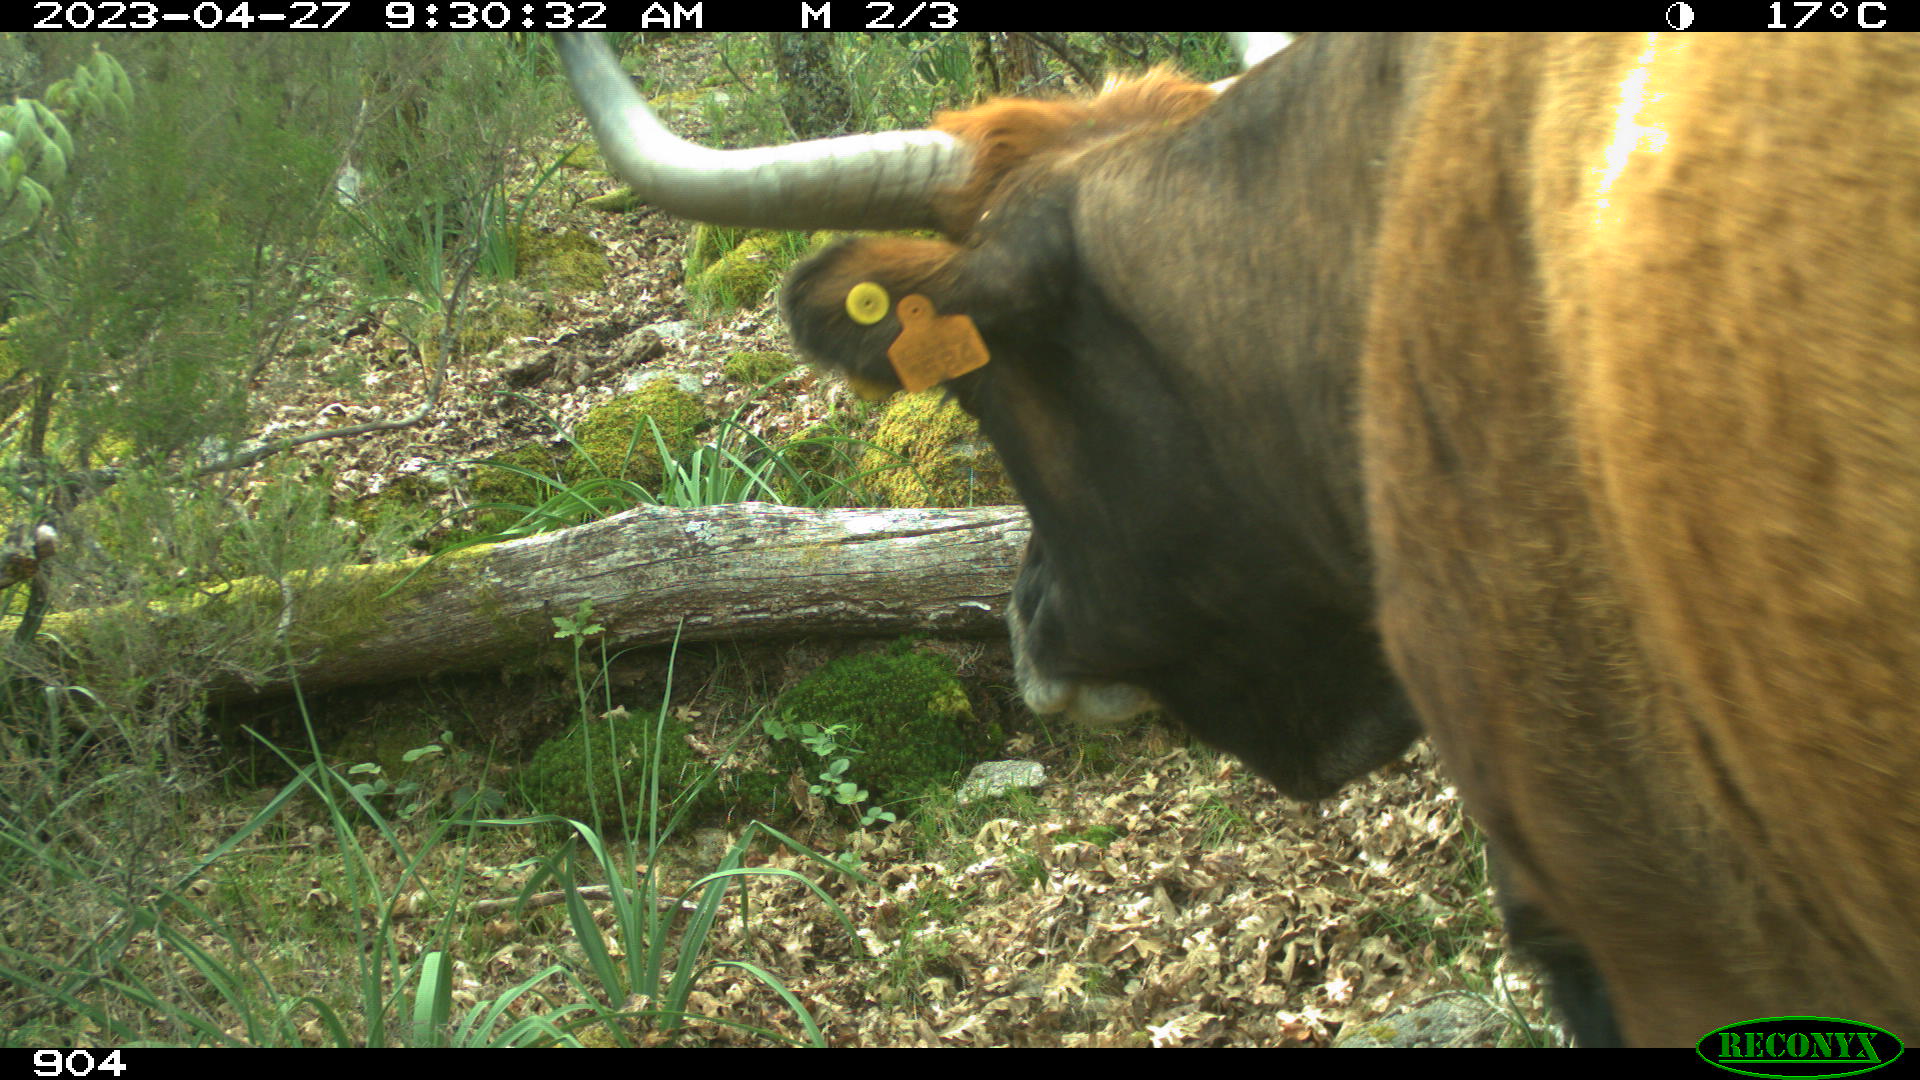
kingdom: Animalia
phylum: Chordata
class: Mammalia
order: Artiodactyla
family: Bovidae
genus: Bos
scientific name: Bos taurus
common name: Domesticated cattle
